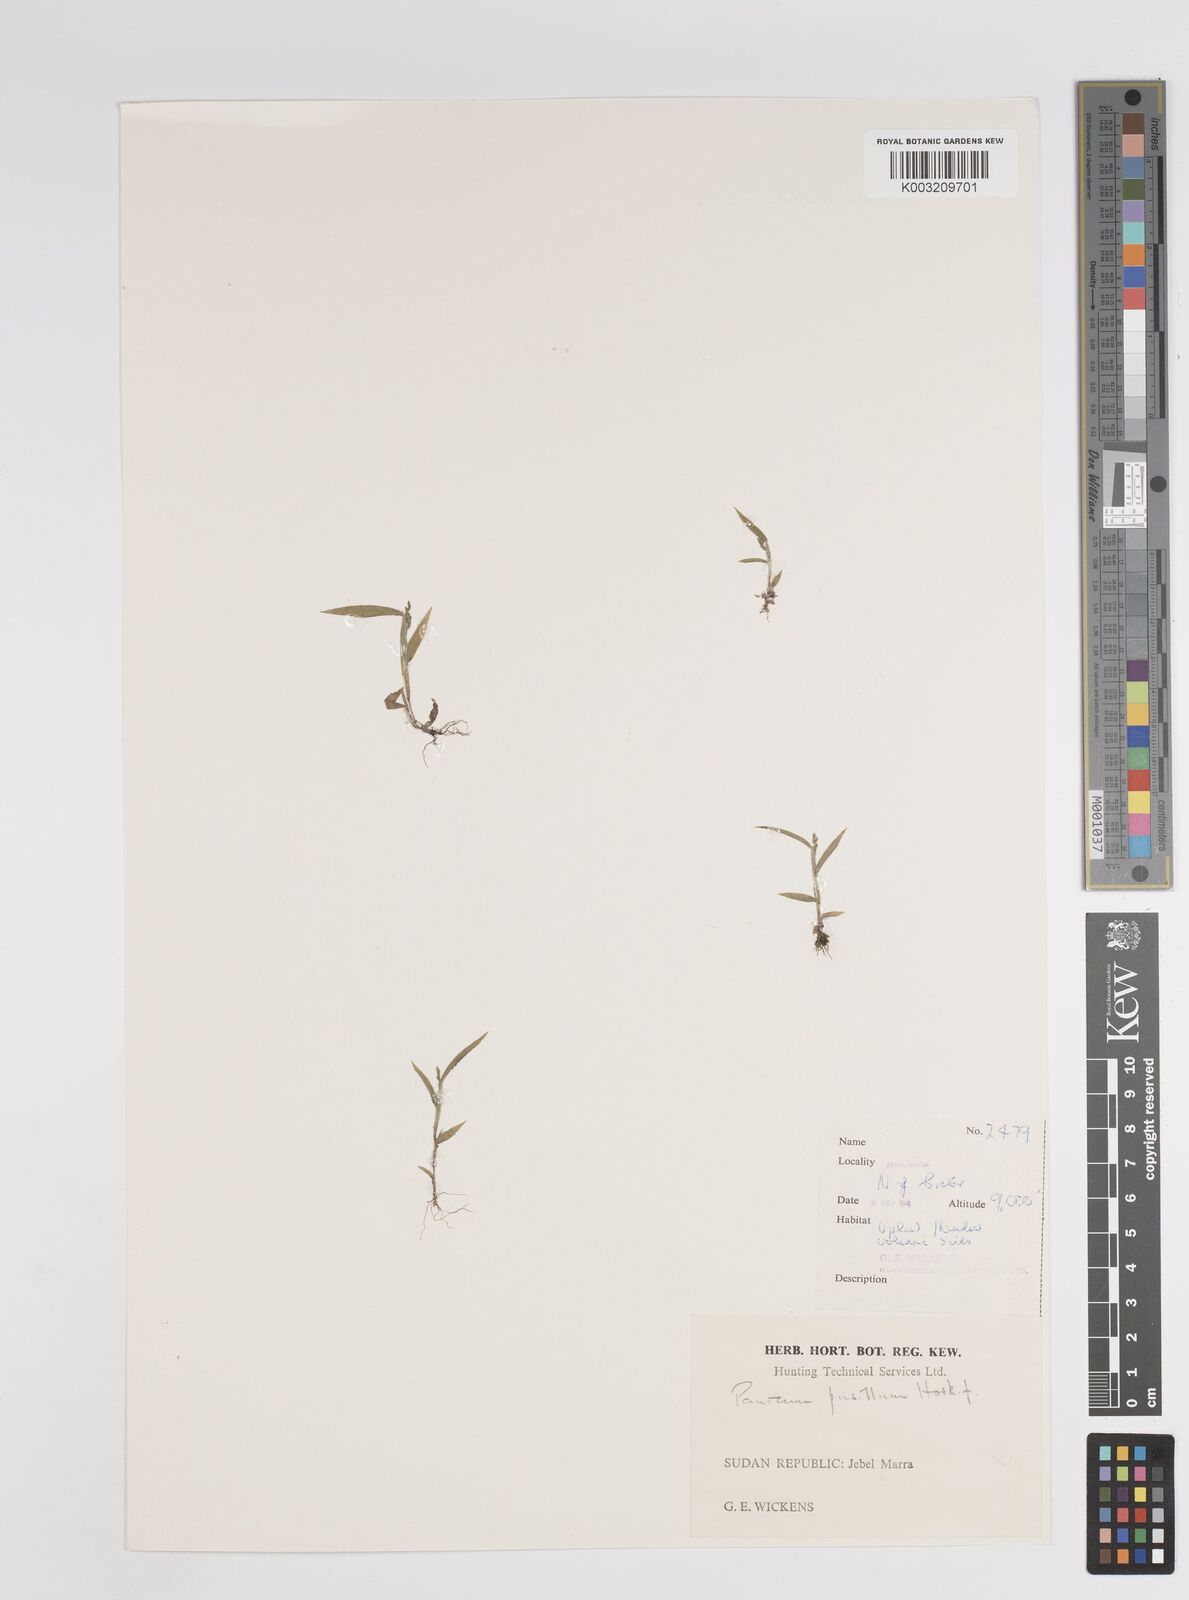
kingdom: Plantae
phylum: Tracheophyta
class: Liliopsida
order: Poales
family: Poaceae
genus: Panicum
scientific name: Panicum pusillum
